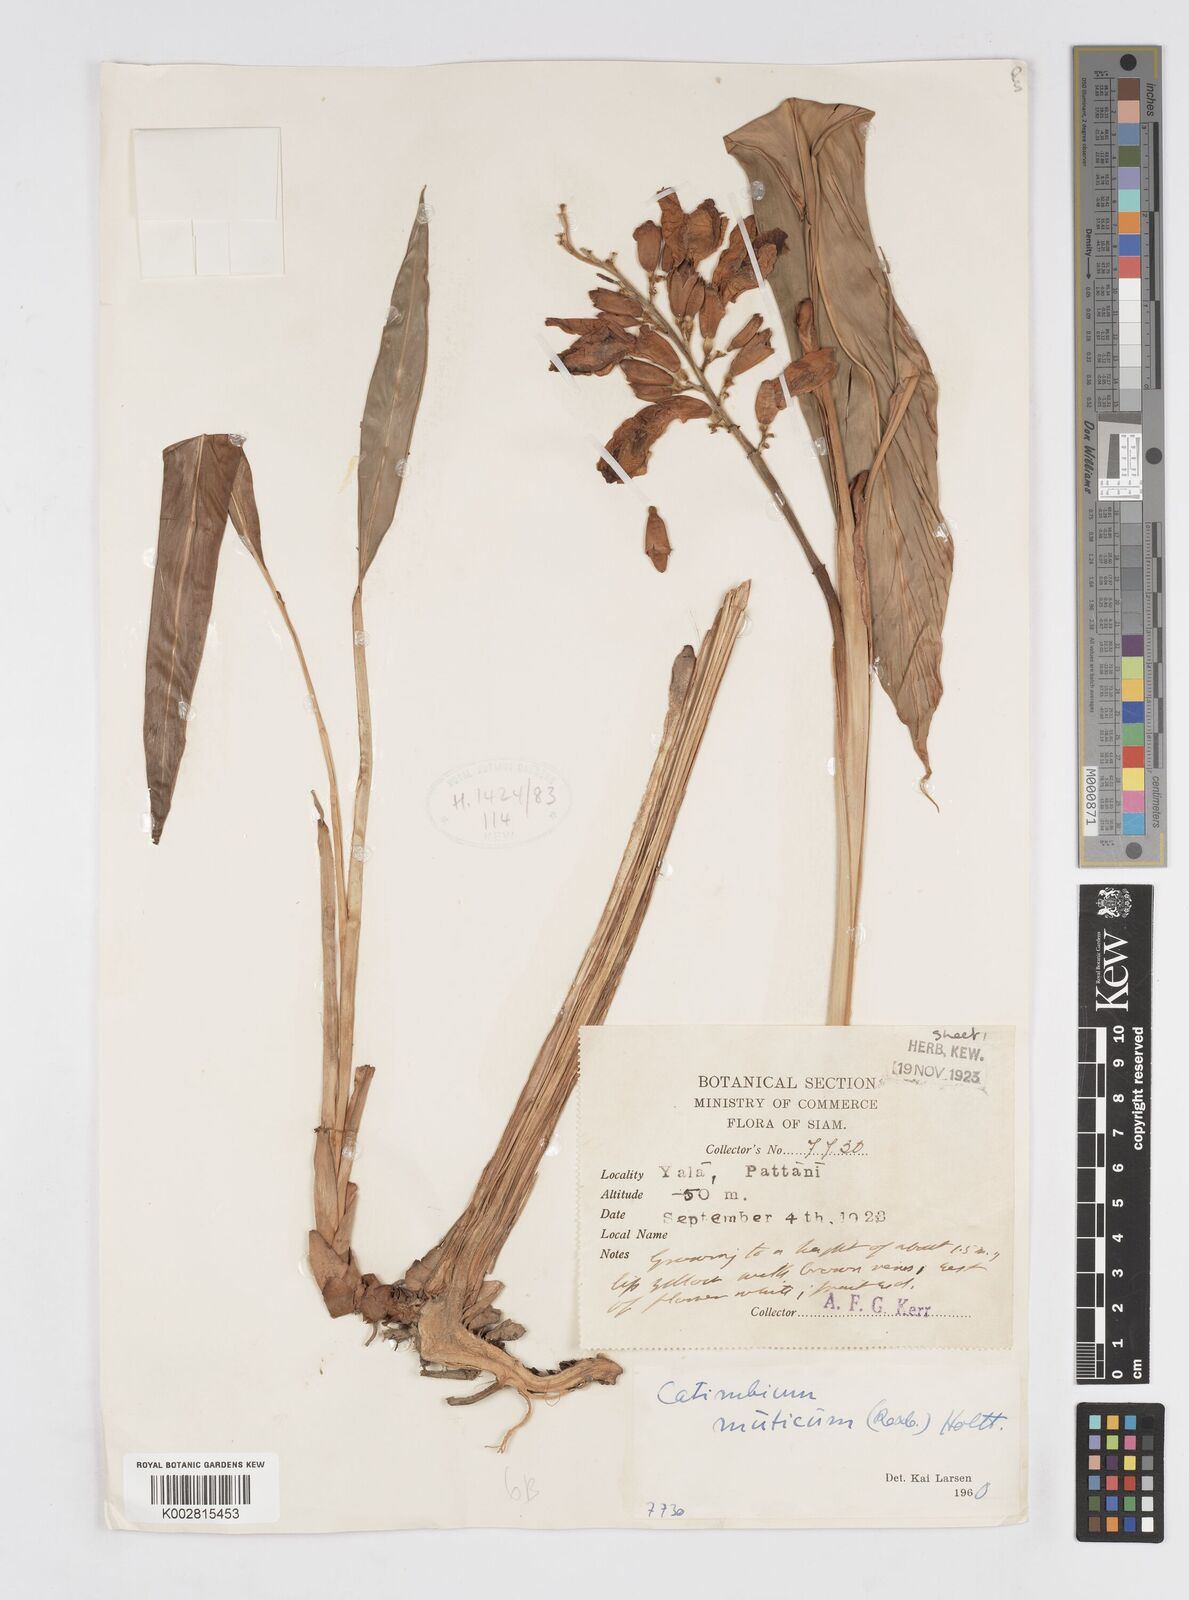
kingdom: Plantae
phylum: Tracheophyta
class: Liliopsida
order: Zingiberales
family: Zingiberaceae
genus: Alpinia
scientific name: Alpinia mutica
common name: Small shell ginger
